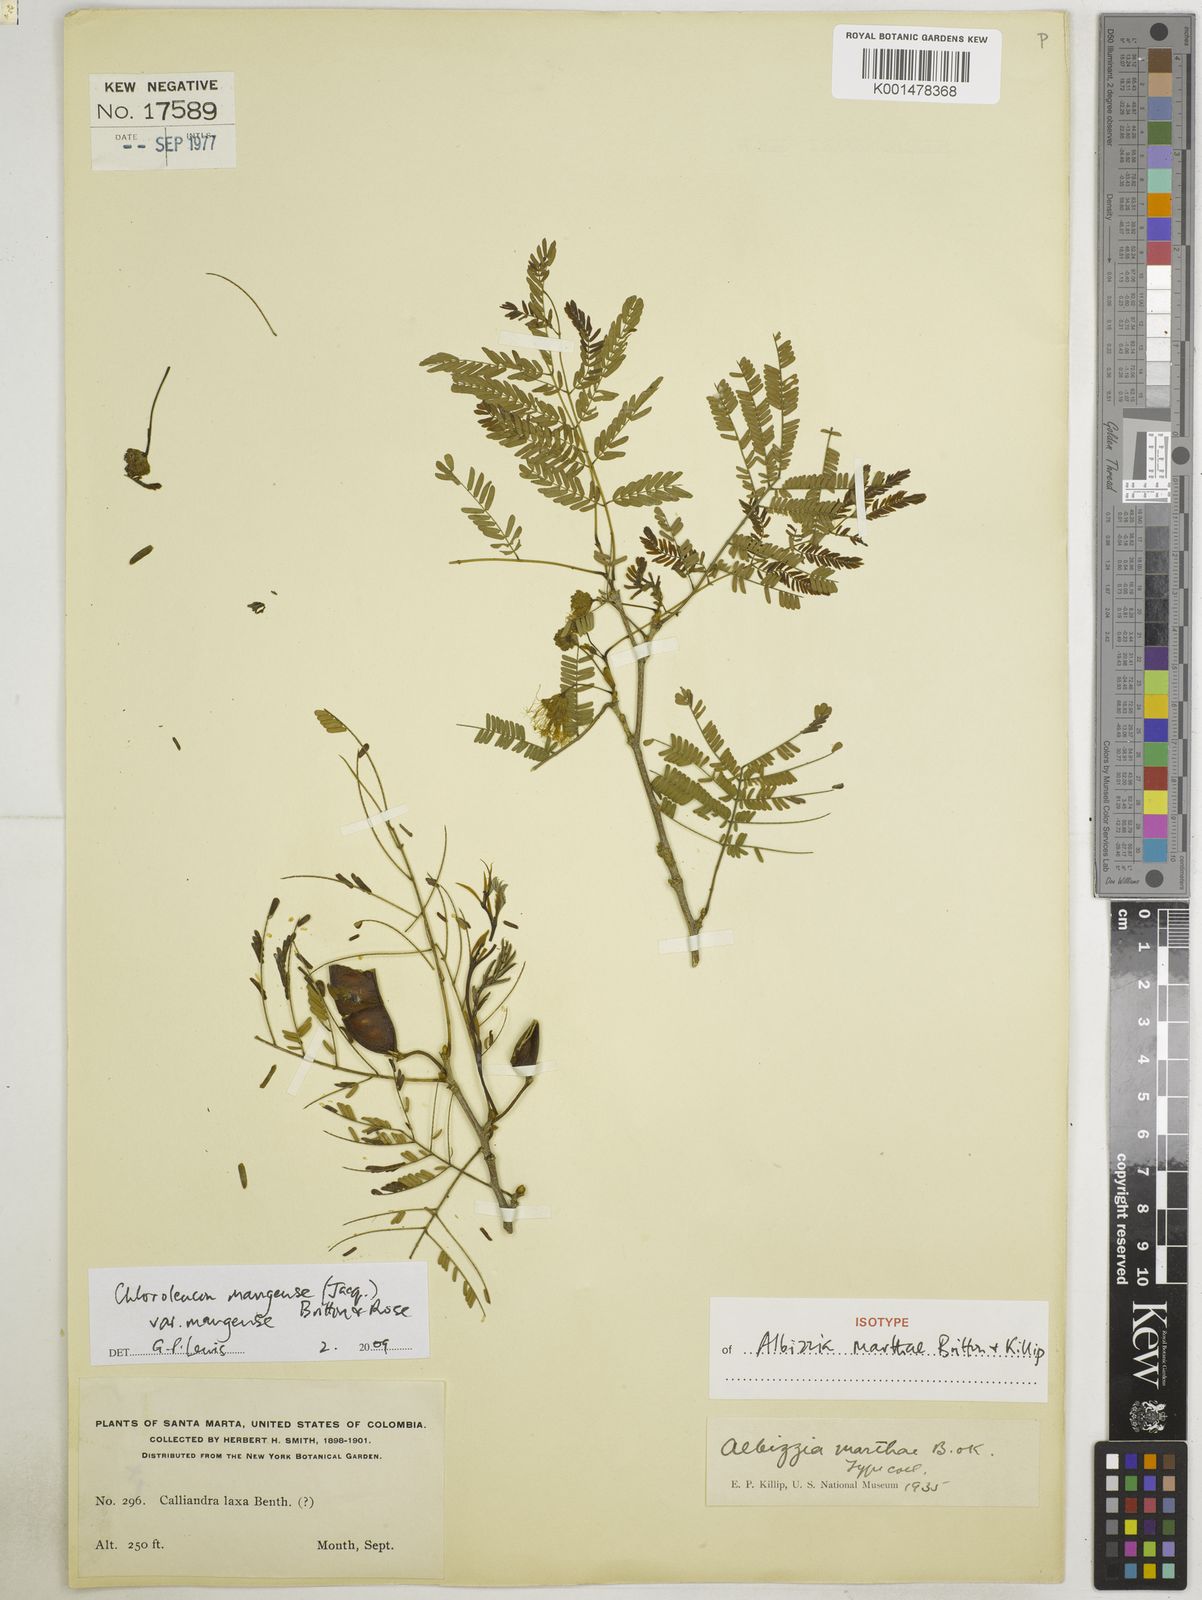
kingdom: Plantae
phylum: Tracheophyta
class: Magnoliopsida
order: Fabales
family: Fabaceae
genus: Chloroleucon
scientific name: Chloroleucon mangense
